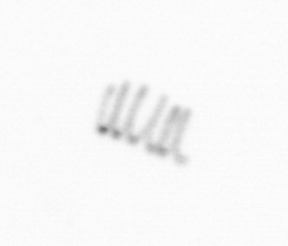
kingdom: Chromista
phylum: Ochrophyta
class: Bacillariophyceae
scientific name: Bacillariophyceae
